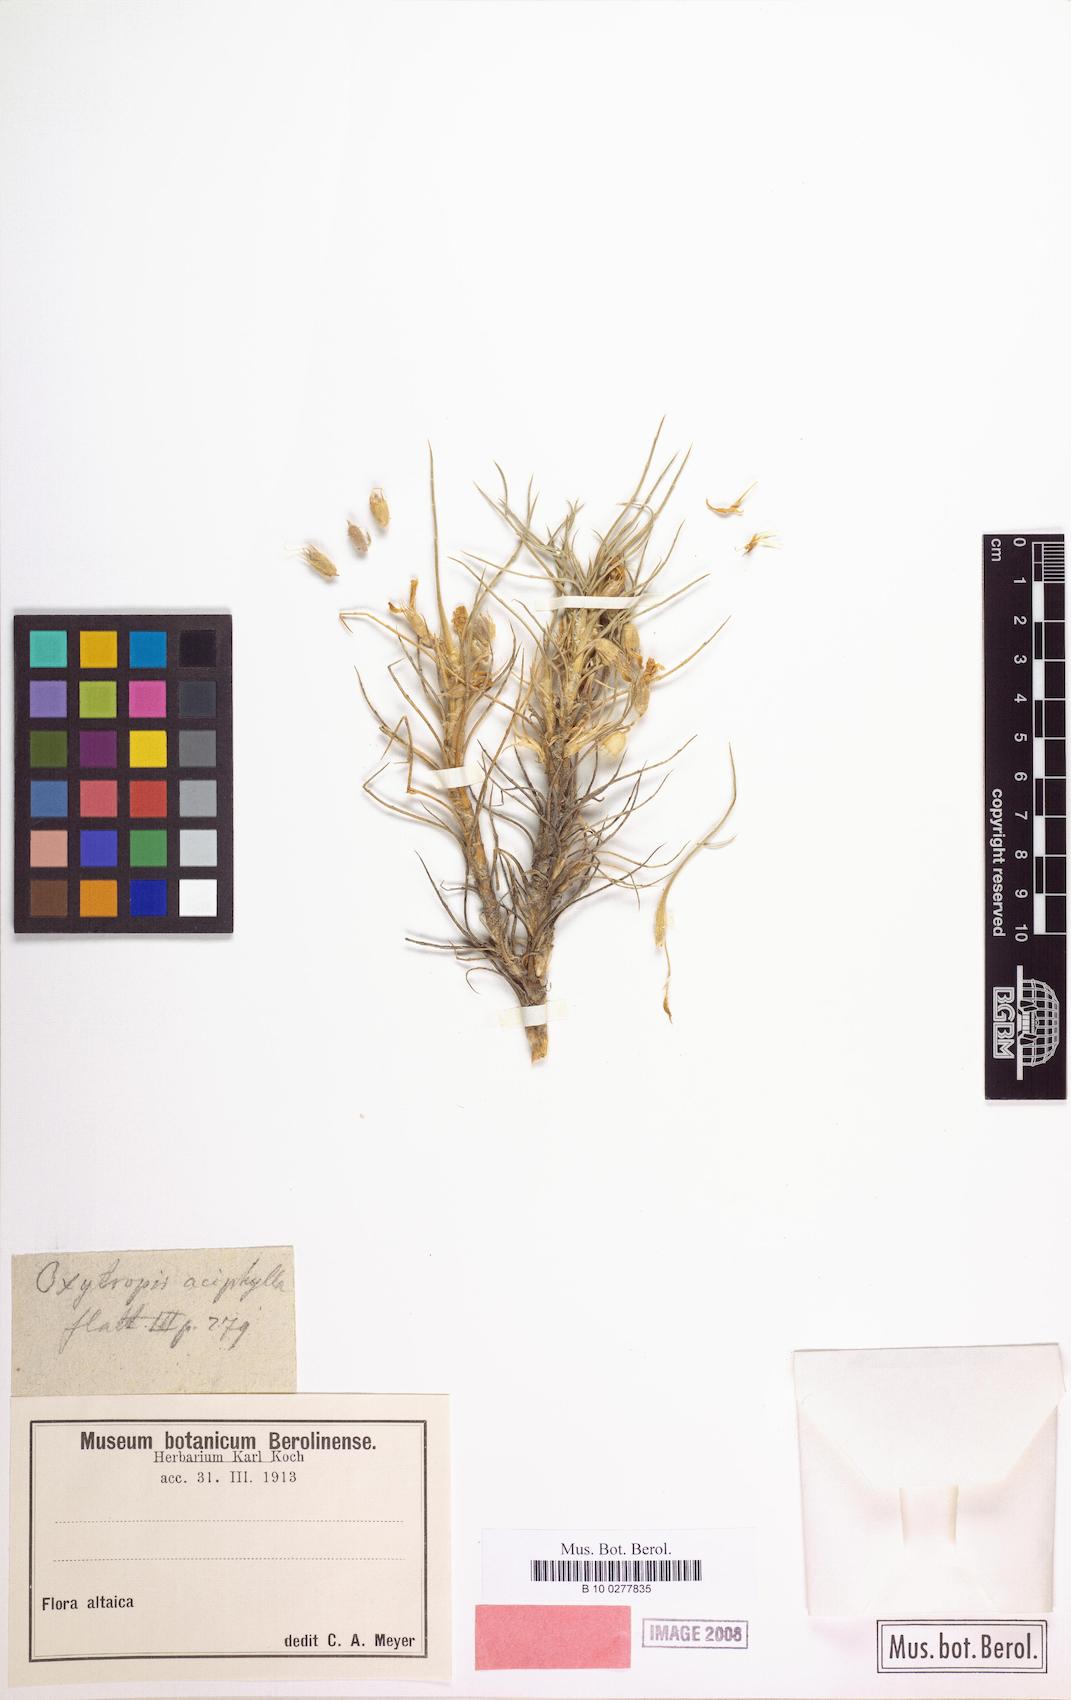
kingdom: Plantae
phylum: Tracheophyta
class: Magnoliopsida
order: Fabales
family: Fabaceae
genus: Oxytropis
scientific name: Oxytropis aciphylla
